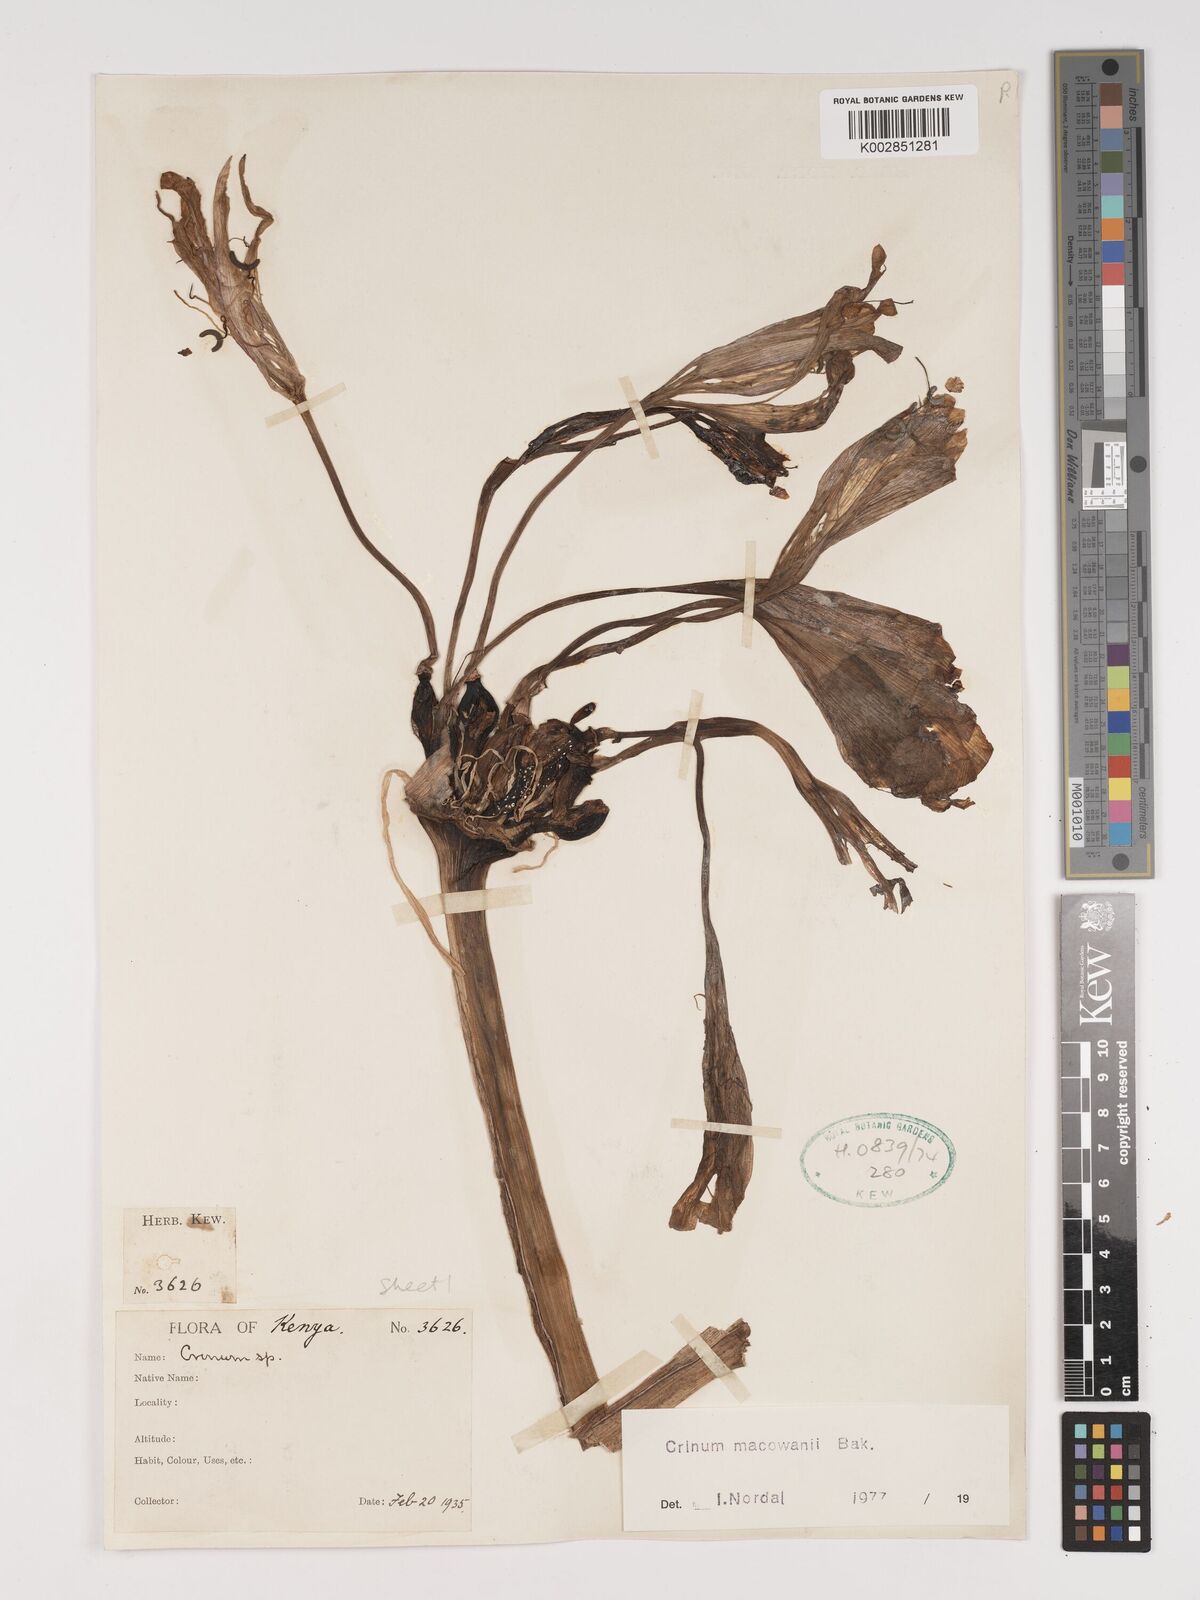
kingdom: Plantae
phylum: Tracheophyta
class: Liliopsida
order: Asparagales
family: Amaryllidaceae
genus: Crinum
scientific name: Crinum macowanii
